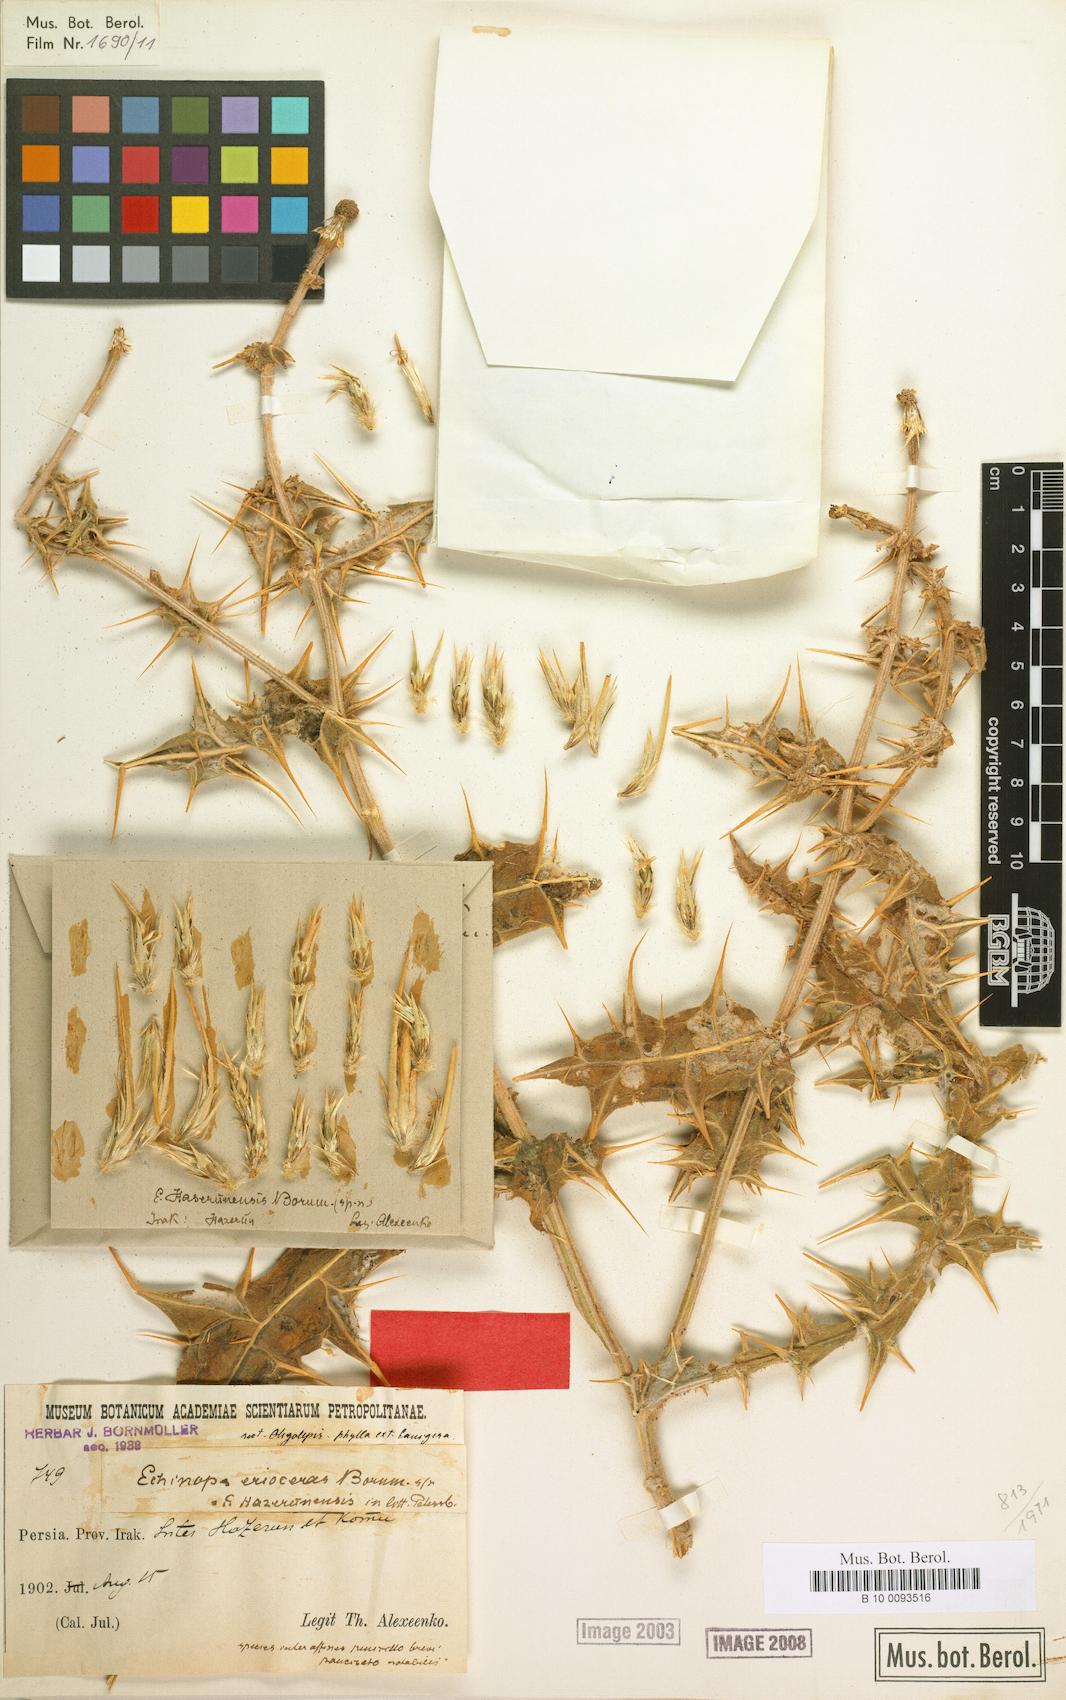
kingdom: Plantae
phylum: Tracheophyta
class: Magnoliopsida
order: Asterales
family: Asteraceae
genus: Echinops
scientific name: Echinops erioceras
